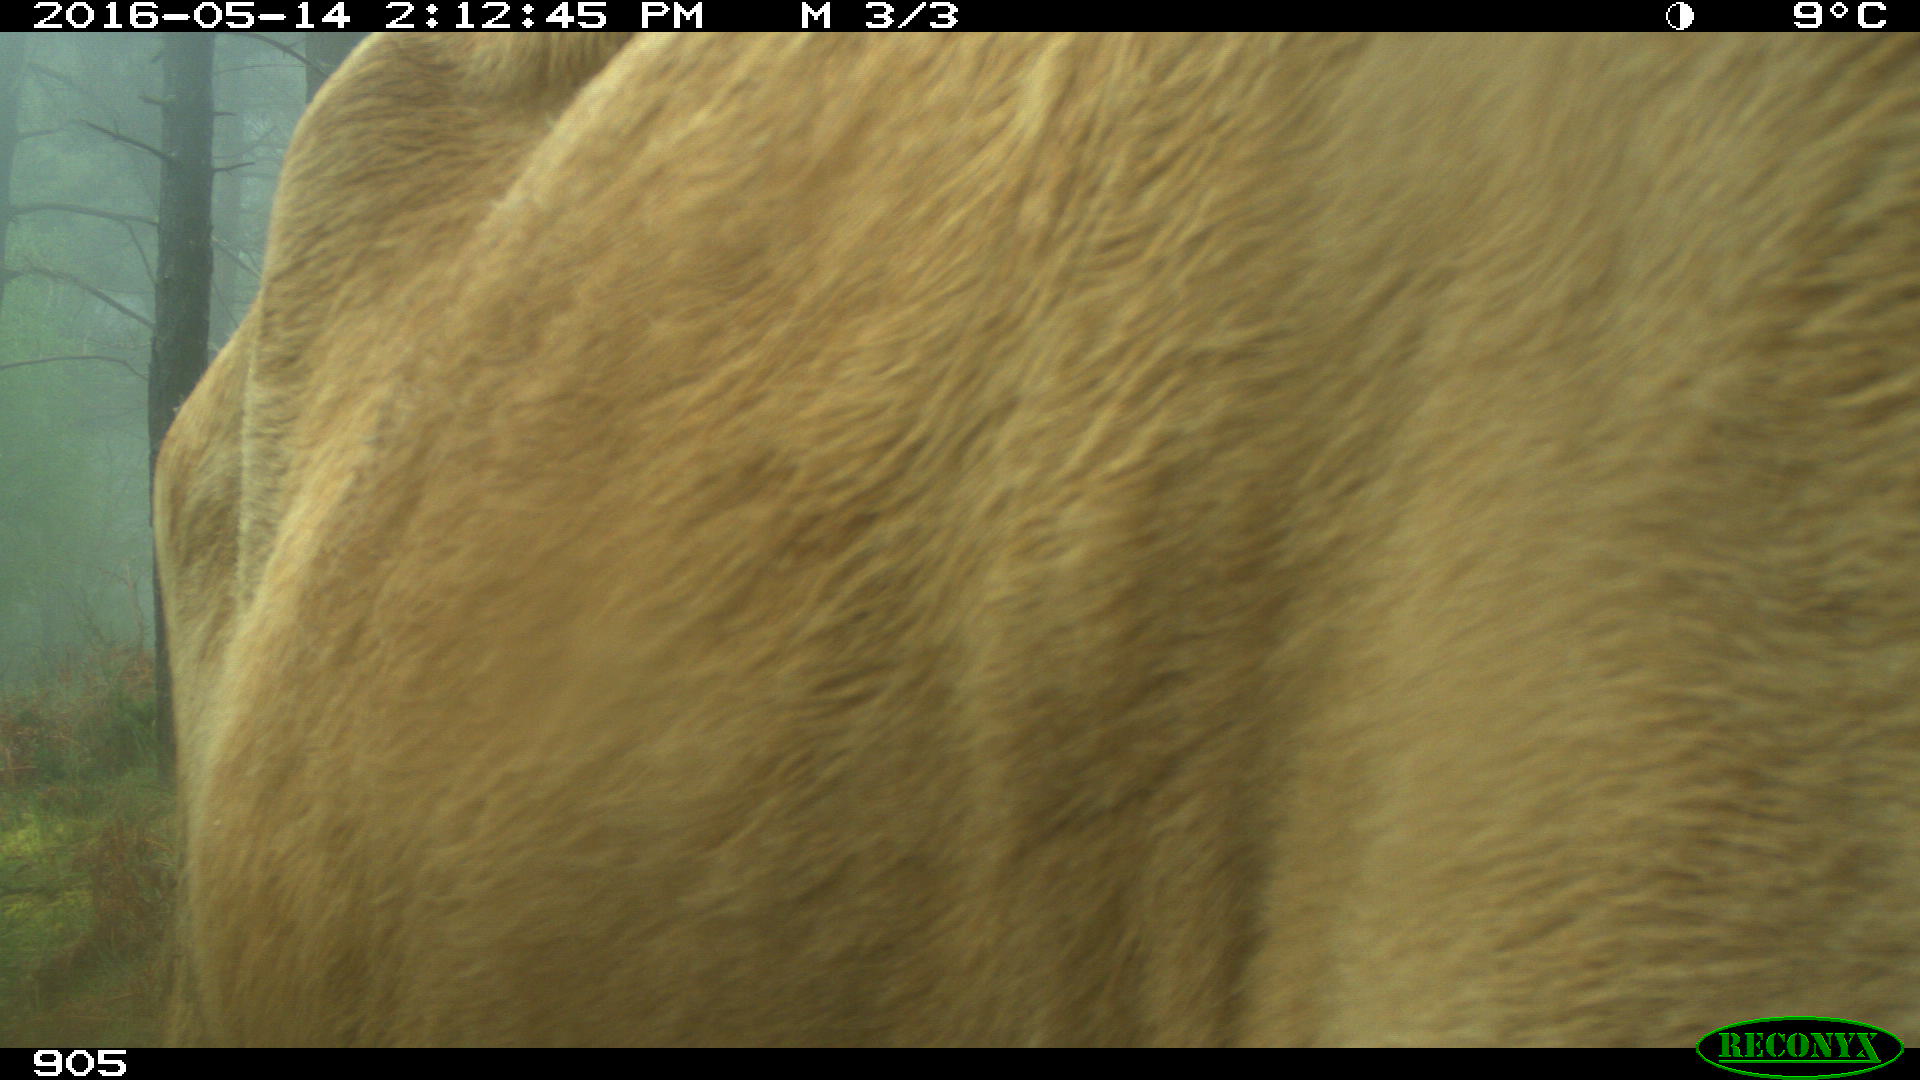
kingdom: Animalia
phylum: Chordata
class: Mammalia
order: Artiodactyla
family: Bovidae
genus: Bos
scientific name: Bos taurus
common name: Domesticated cattle
